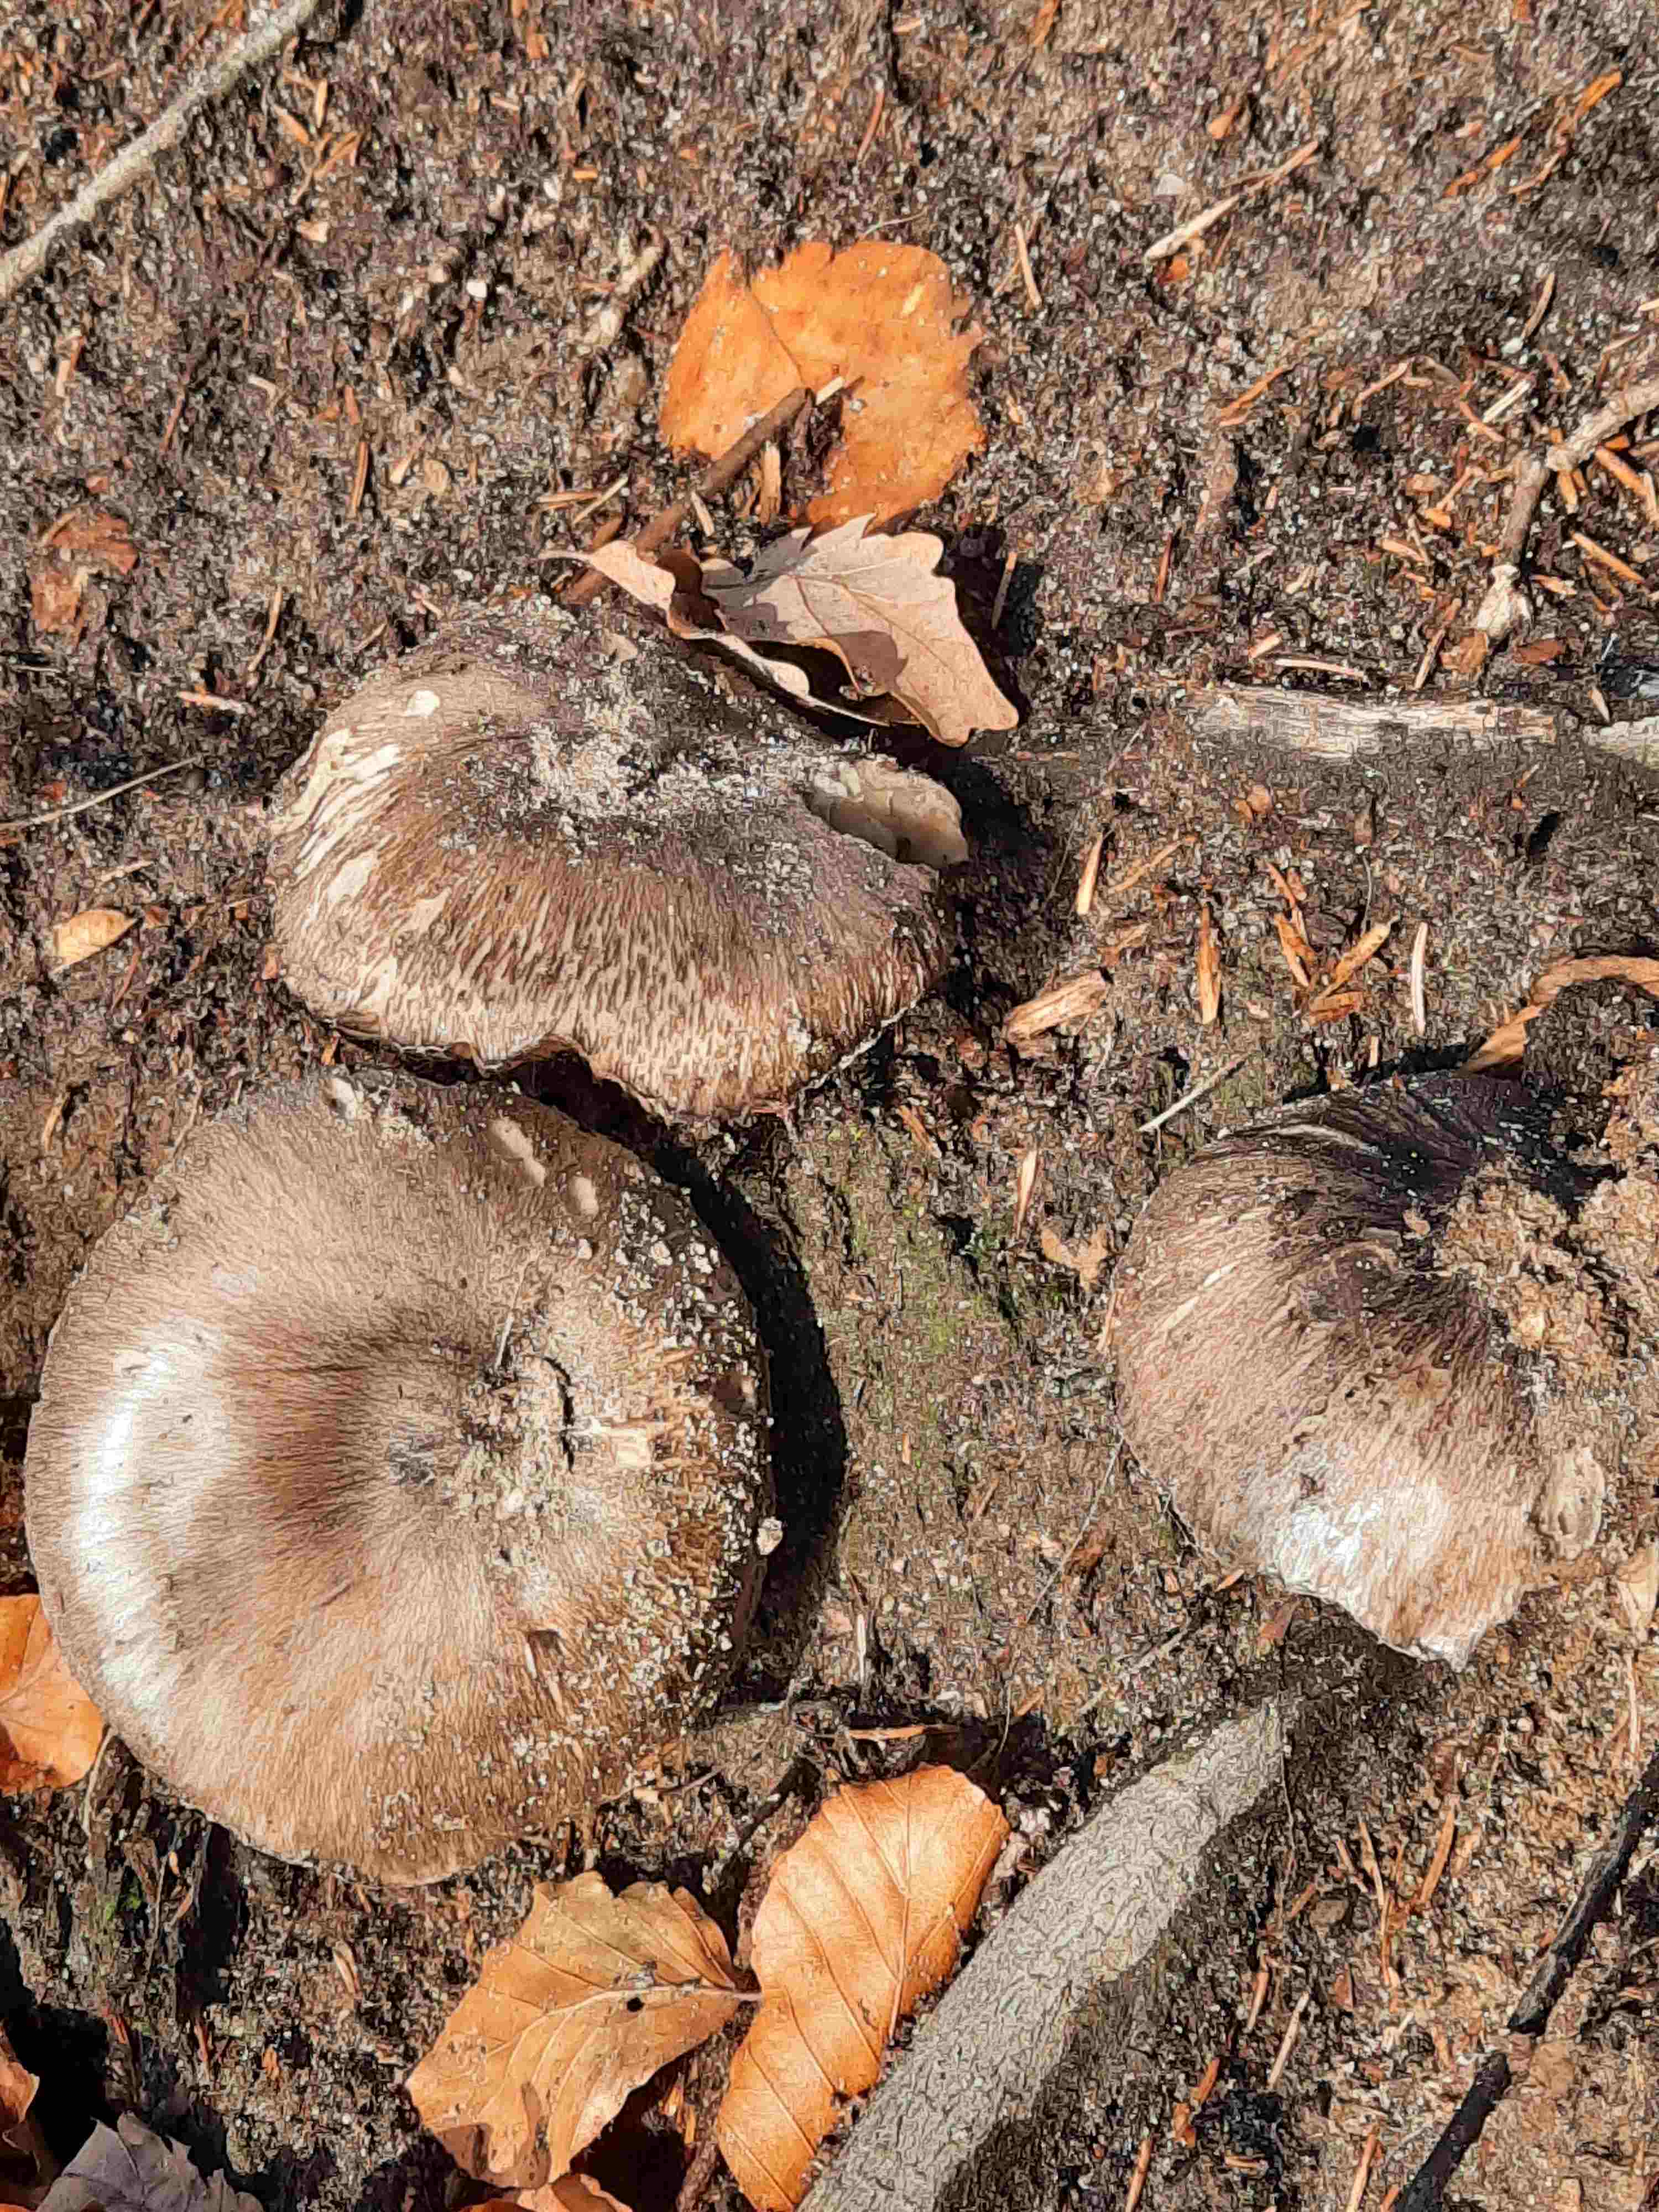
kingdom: Fungi
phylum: Basidiomycota
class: Agaricomycetes
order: Agaricales
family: Tricholomataceae
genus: Tricholoma
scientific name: Tricholoma portentosum
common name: grå ridderhat
